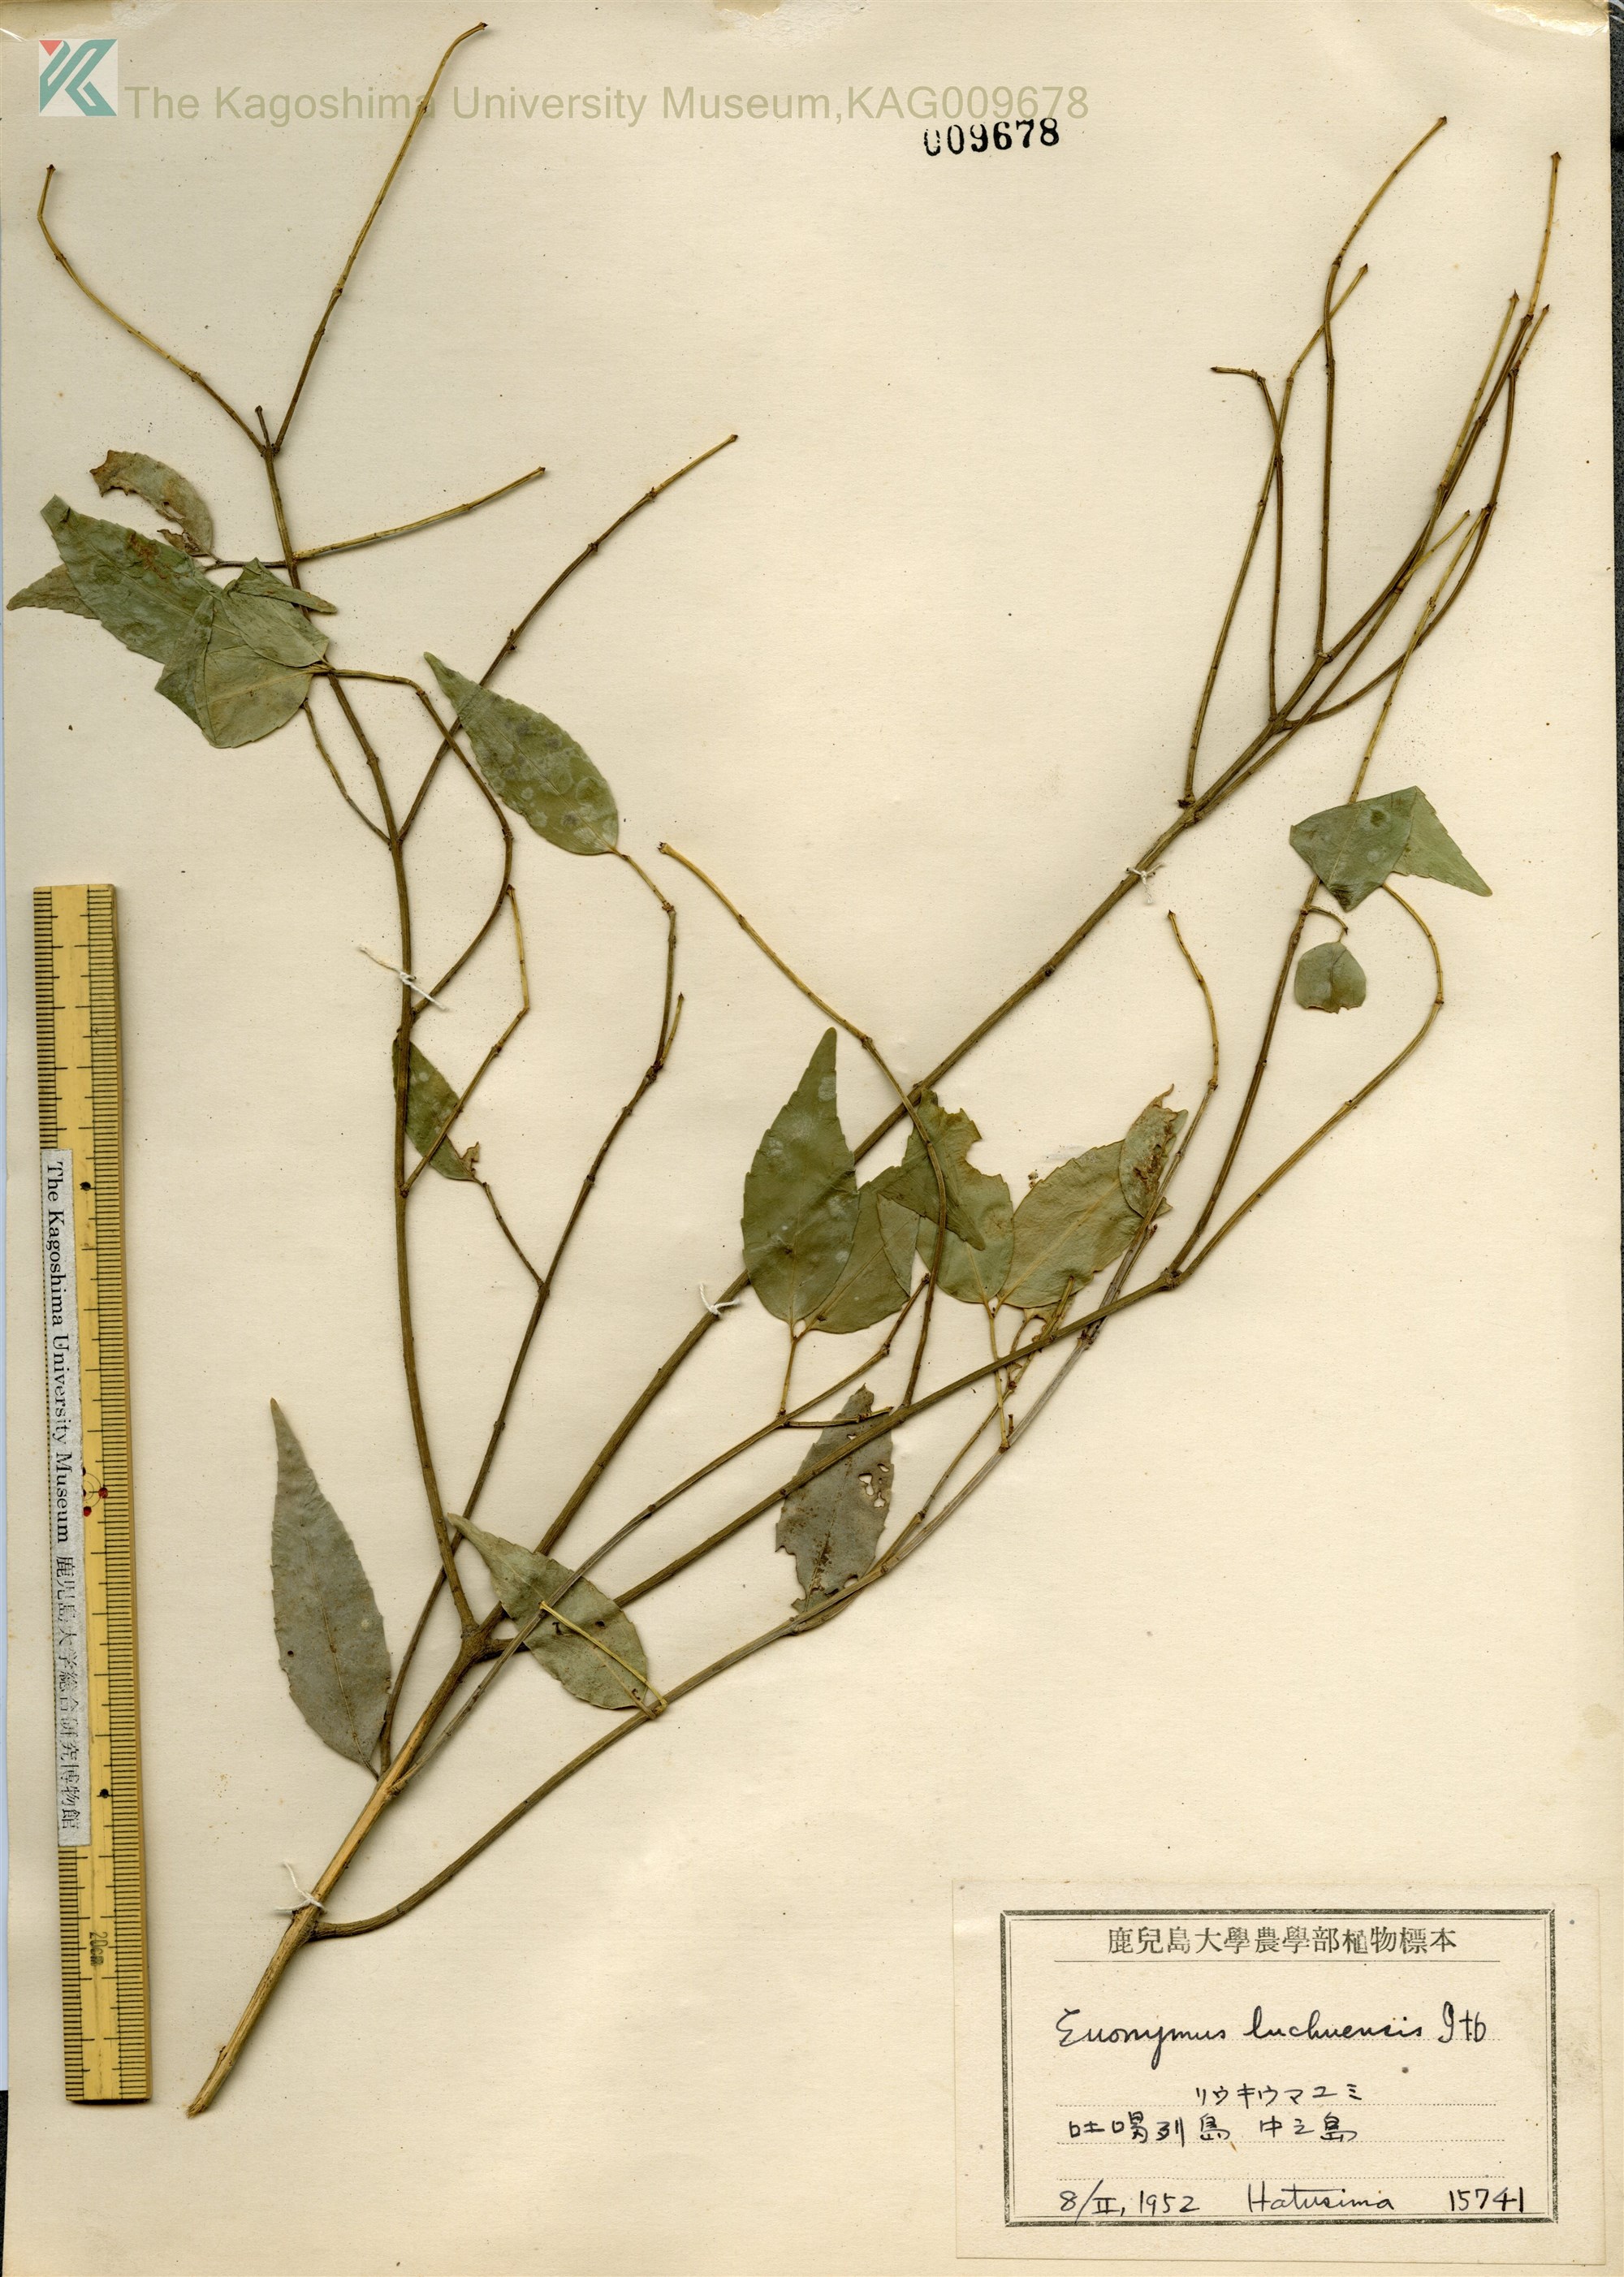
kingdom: Plantae
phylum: Tracheophyta
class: Magnoliopsida
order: Celastrales
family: Celastraceae
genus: Euonymus
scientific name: Euonymus lutchuensis
